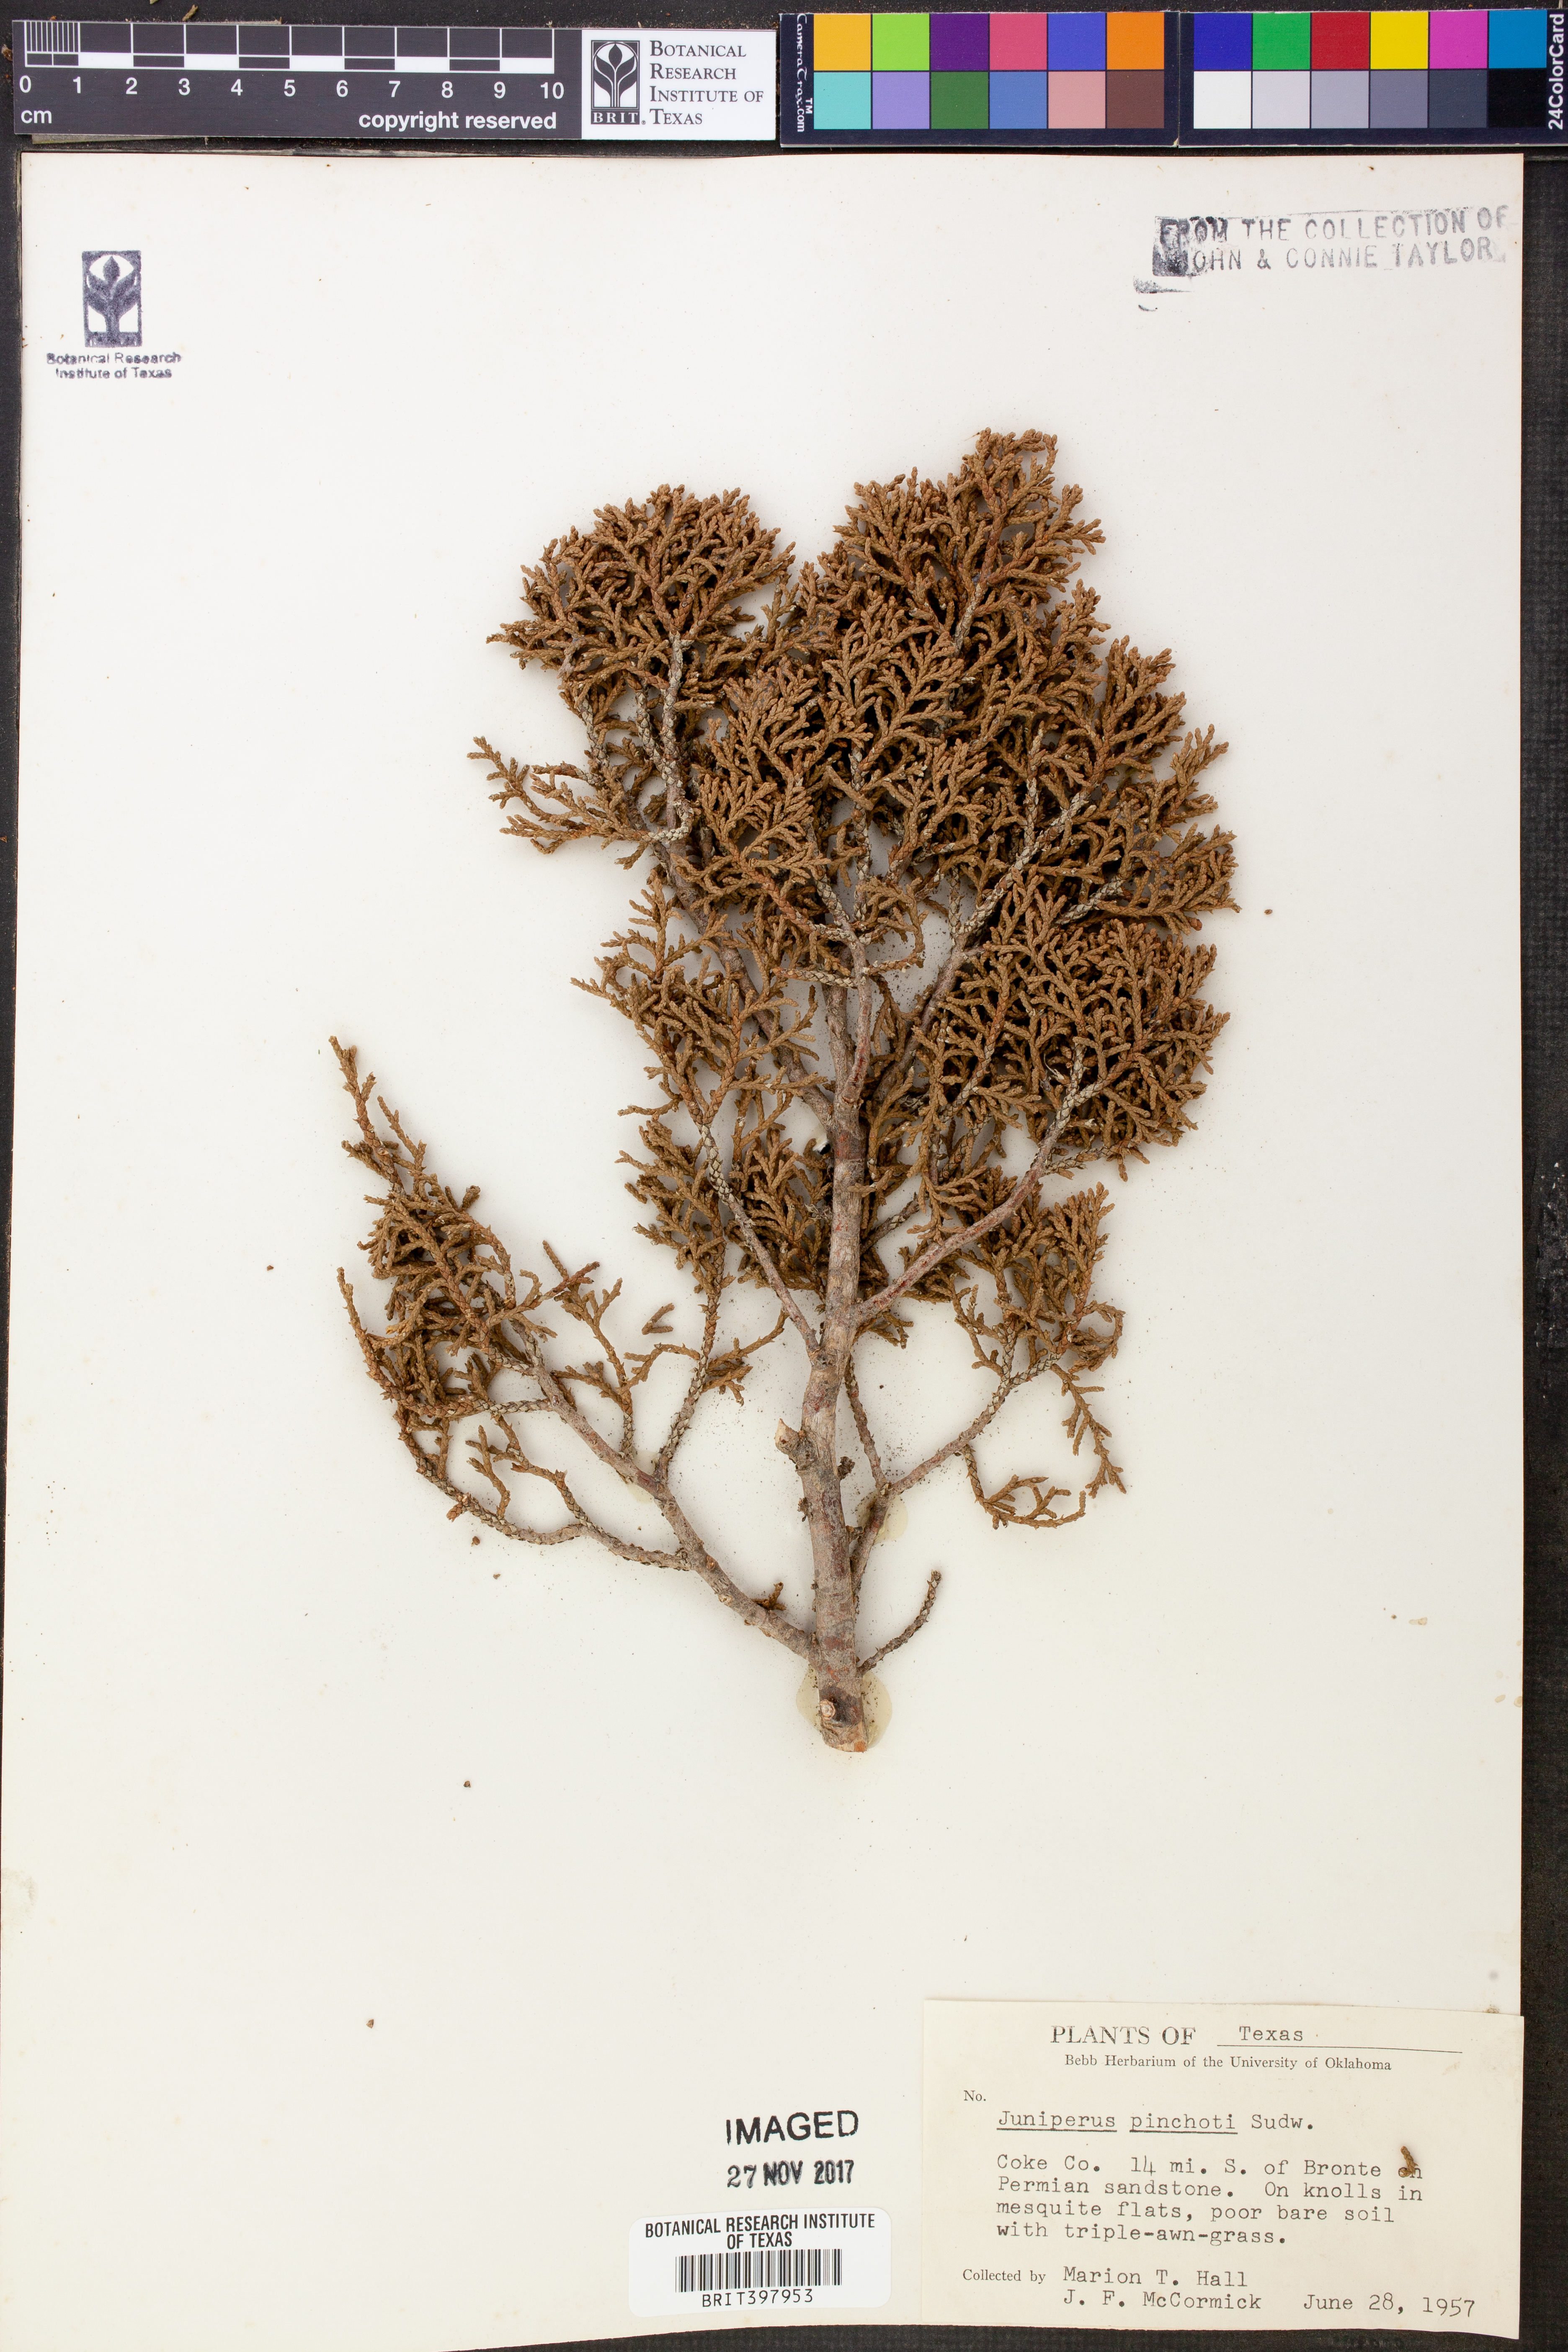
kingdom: Plantae
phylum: Tracheophyta
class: Pinopsida
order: Pinales
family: Cupressaceae
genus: Juniperus
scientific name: Juniperus pinchotii
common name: Pinchot juniper
